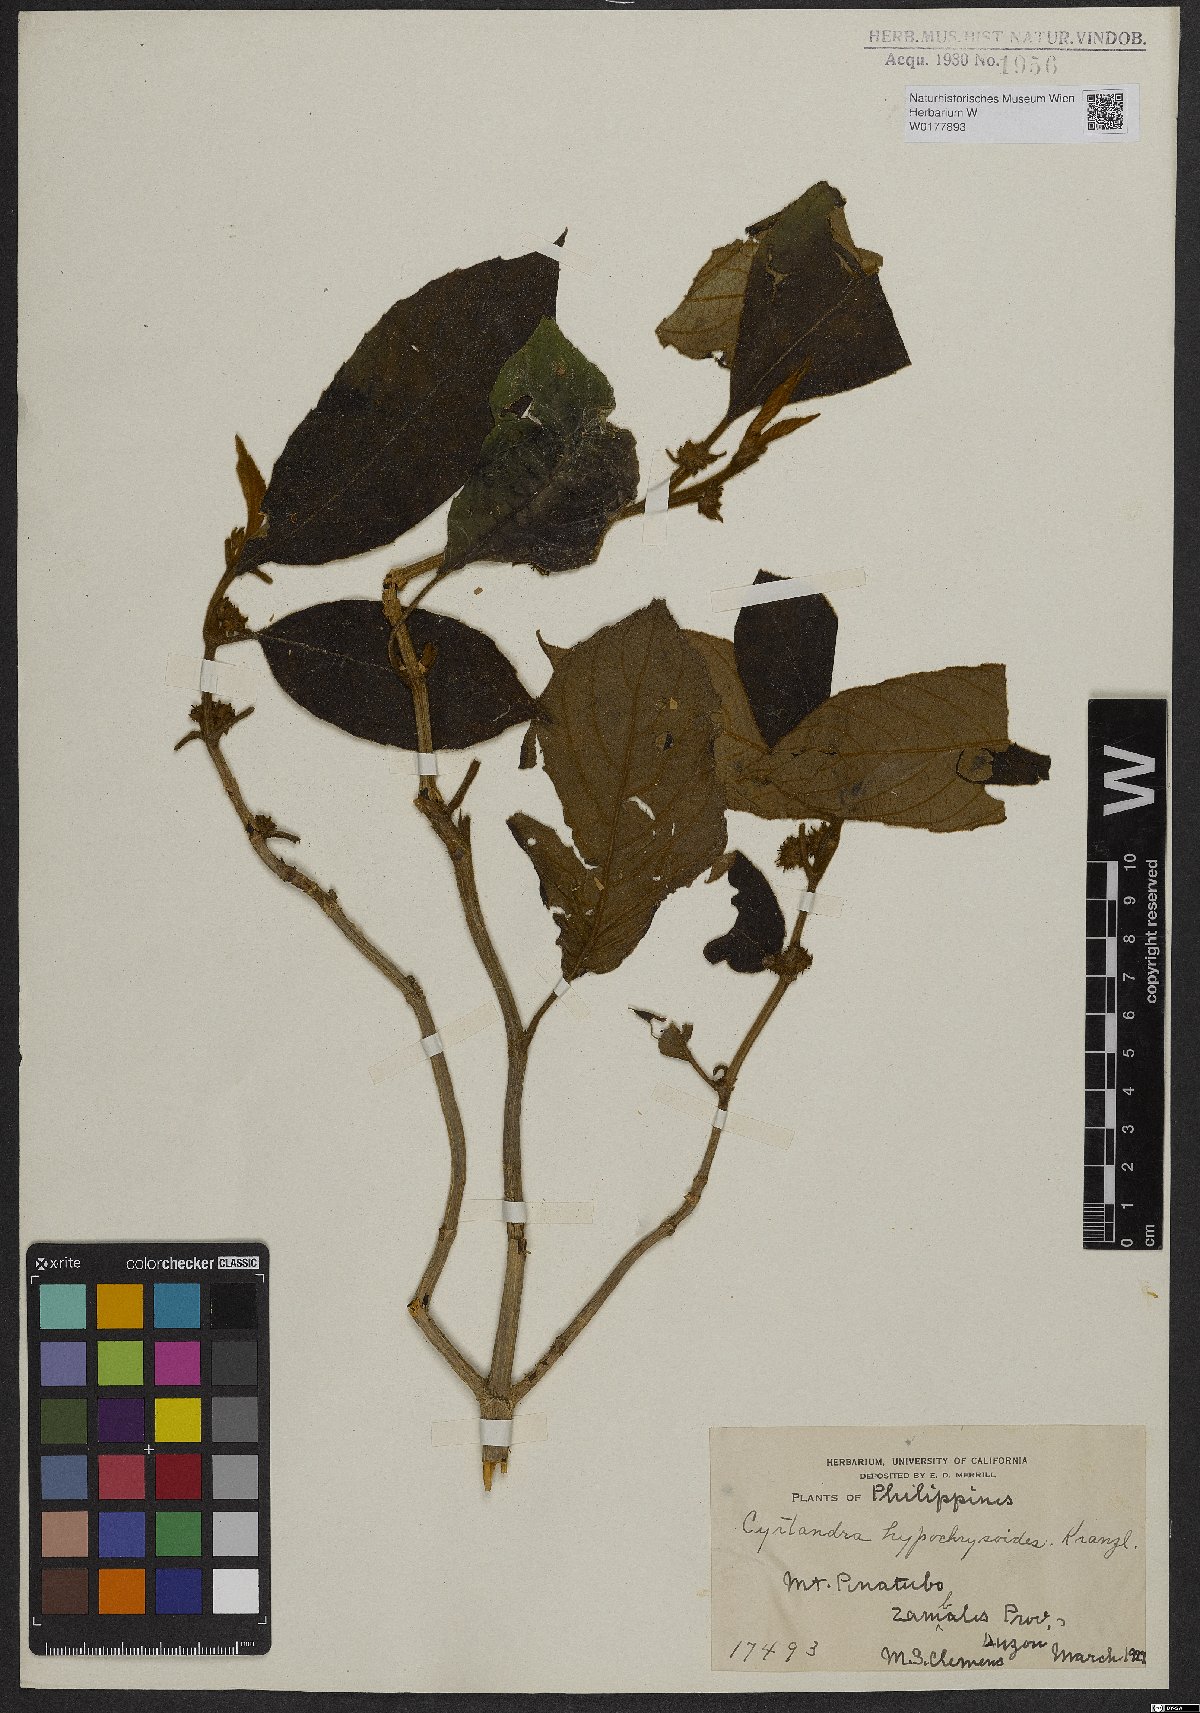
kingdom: Plantae
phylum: Tracheophyta
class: Magnoliopsida
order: Lamiales
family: Gesneriaceae
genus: Cyrtandra
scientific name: Cyrtandra hypochrysoides
